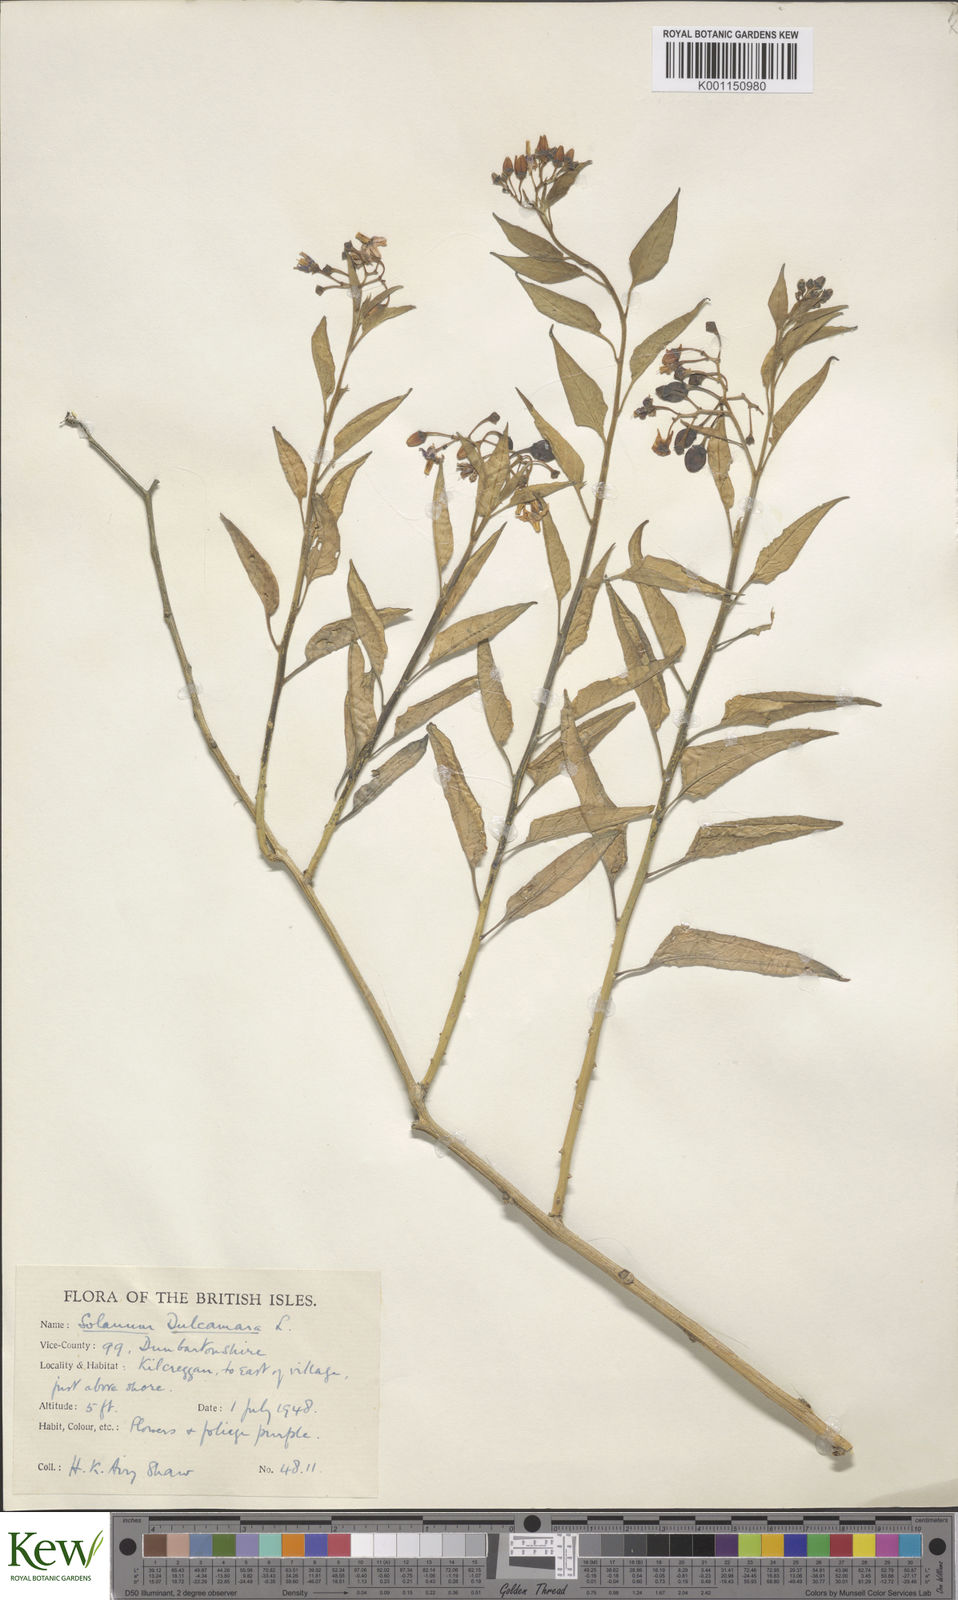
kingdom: Plantae
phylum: Tracheophyta
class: Magnoliopsida
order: Solanales
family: Solanaceae
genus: Solanum
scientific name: Solanum dulcamara
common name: Climbing nightshade
